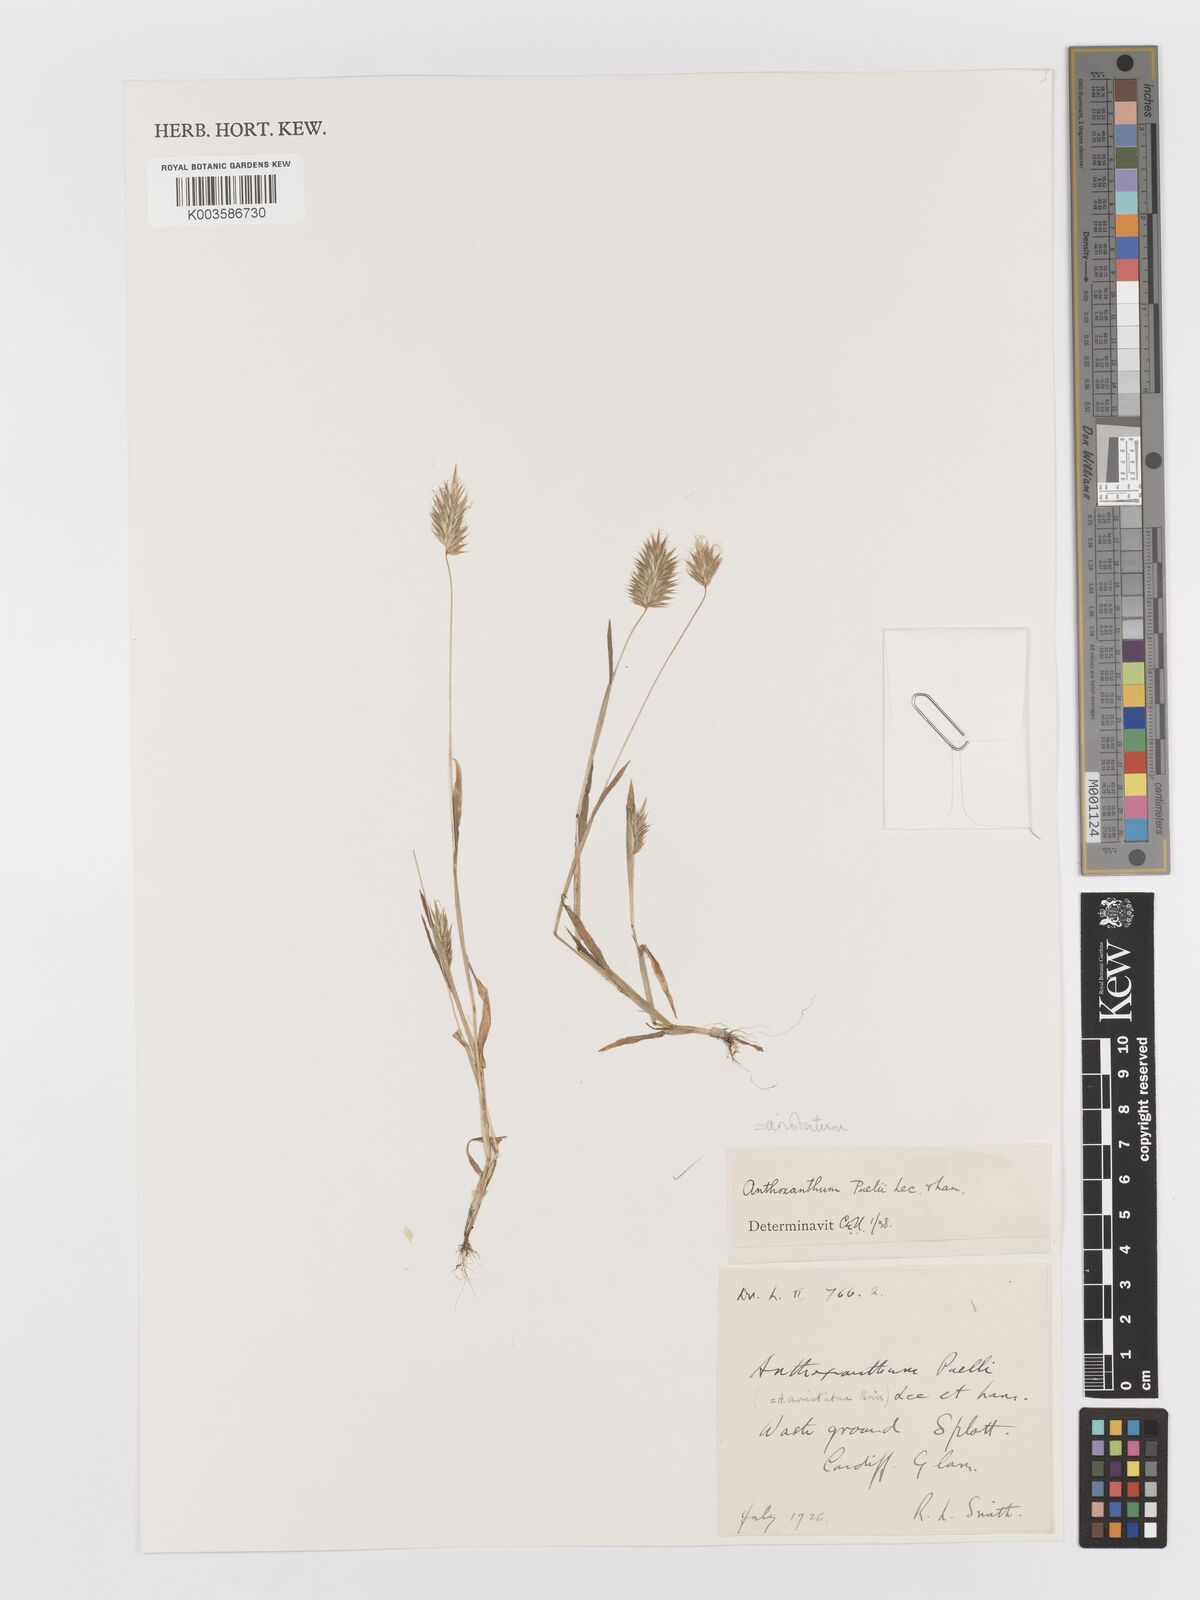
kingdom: Plantae
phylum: Tracheophyta
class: Liliopsida
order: Poales
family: Poaceae
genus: Anthoxanthum
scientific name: Anthoxanthum aristatum
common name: Annual vernal-grass
